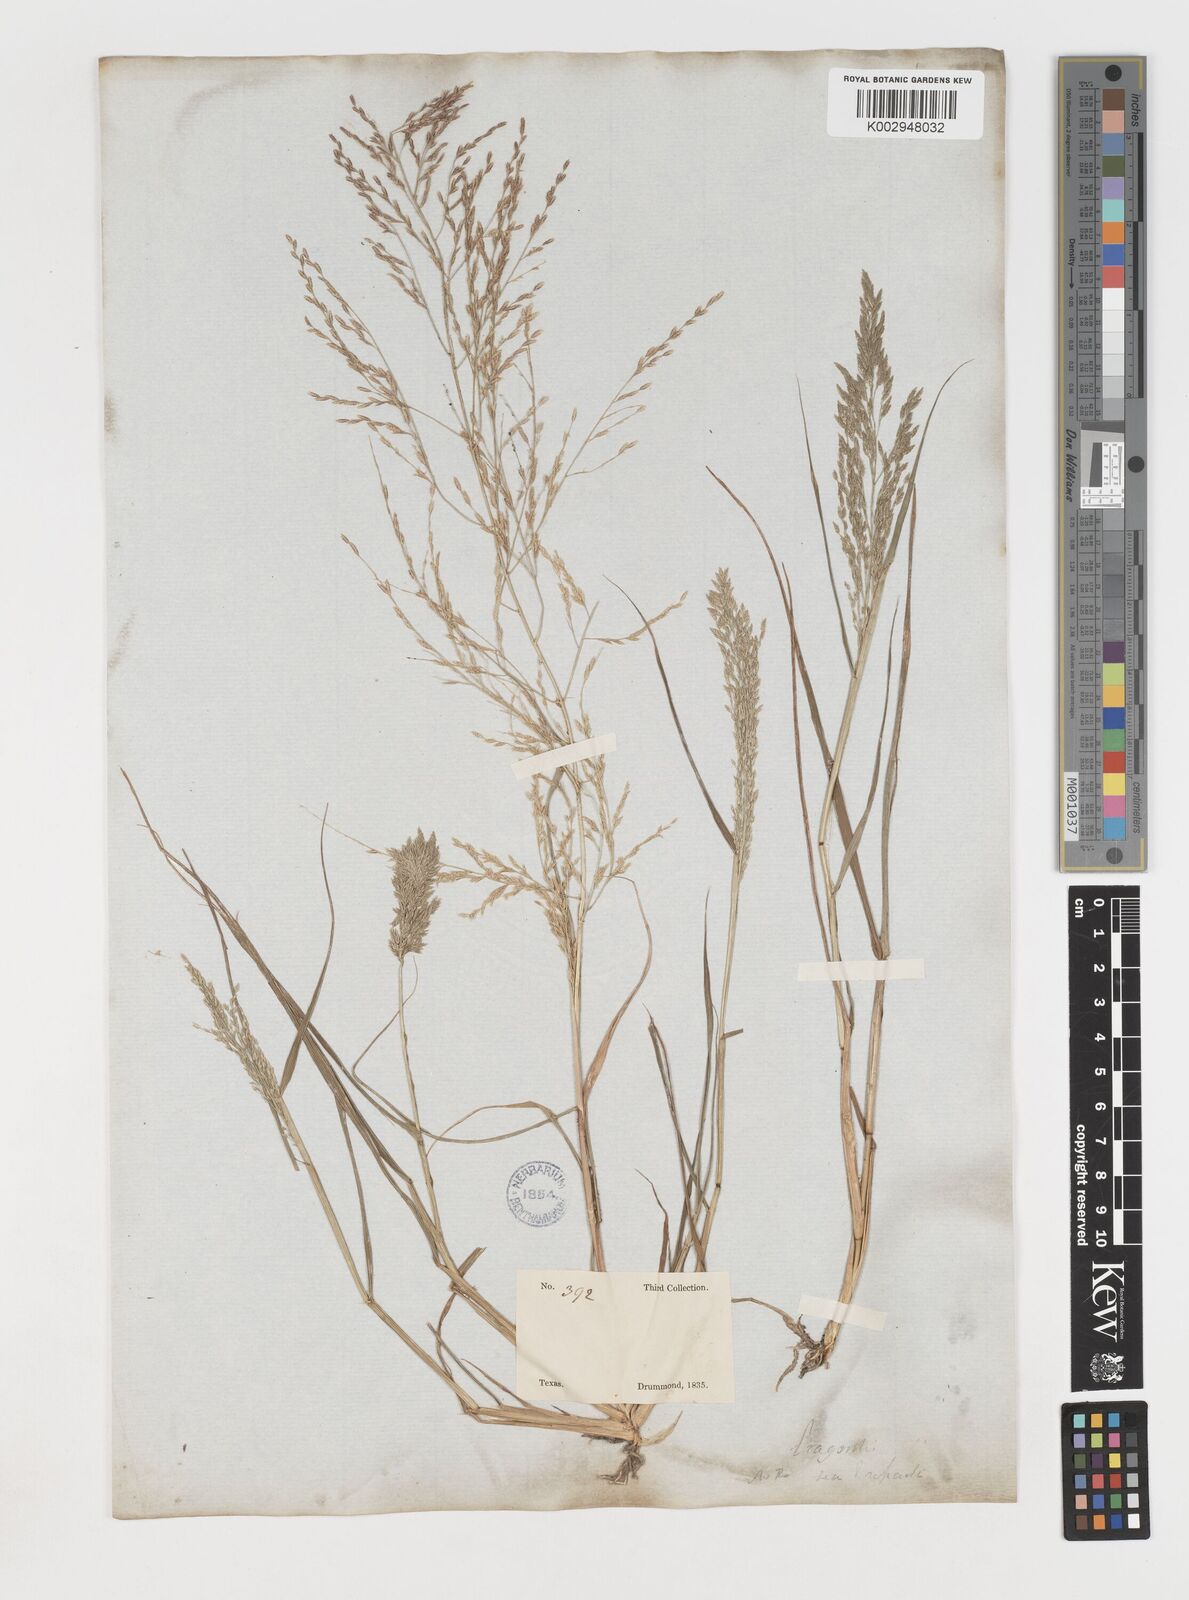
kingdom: Plantae
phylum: Tracheophyta
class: Liliopsida
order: Poales
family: Poaceae
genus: Eragrostis
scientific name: Eragrostis curtipedicellata
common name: Gummy love grass
